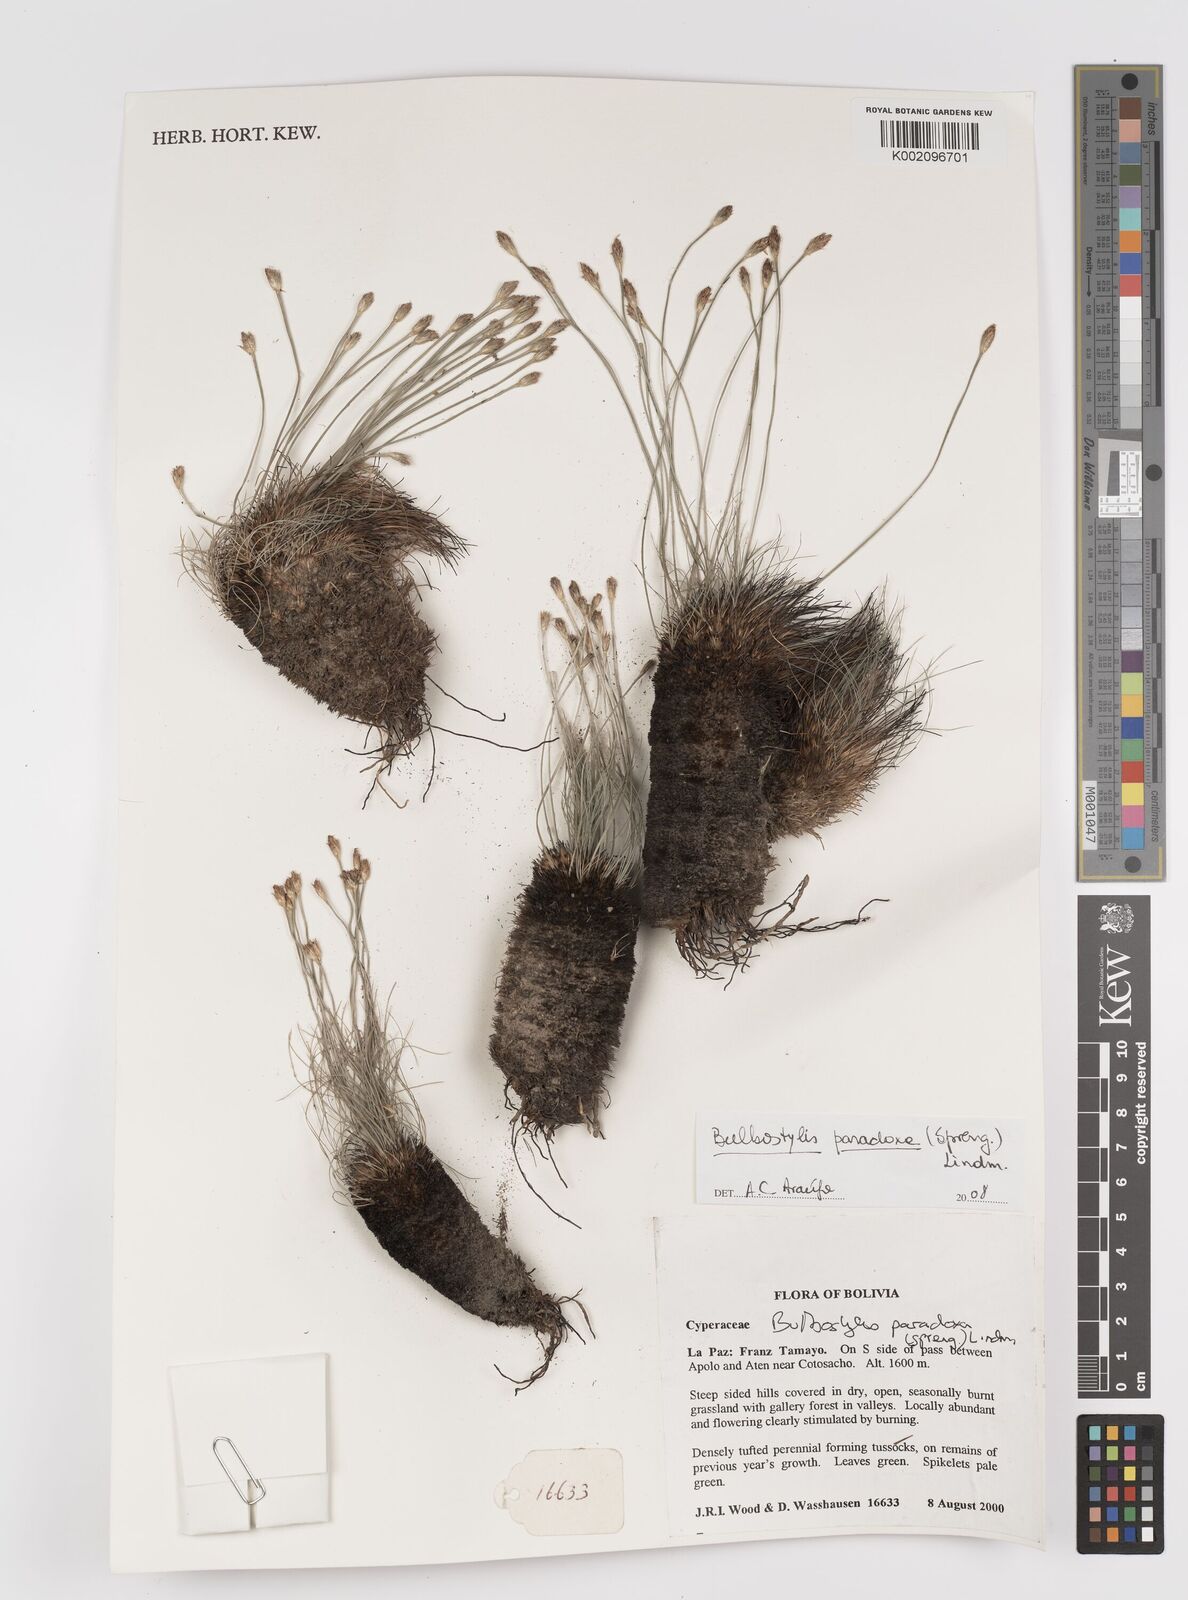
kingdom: Plantae
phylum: Tracheophyta
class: Liliopsida
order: Poales
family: Cyperaceae
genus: Bulbostylis
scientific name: Bulbostylis paradoxa
